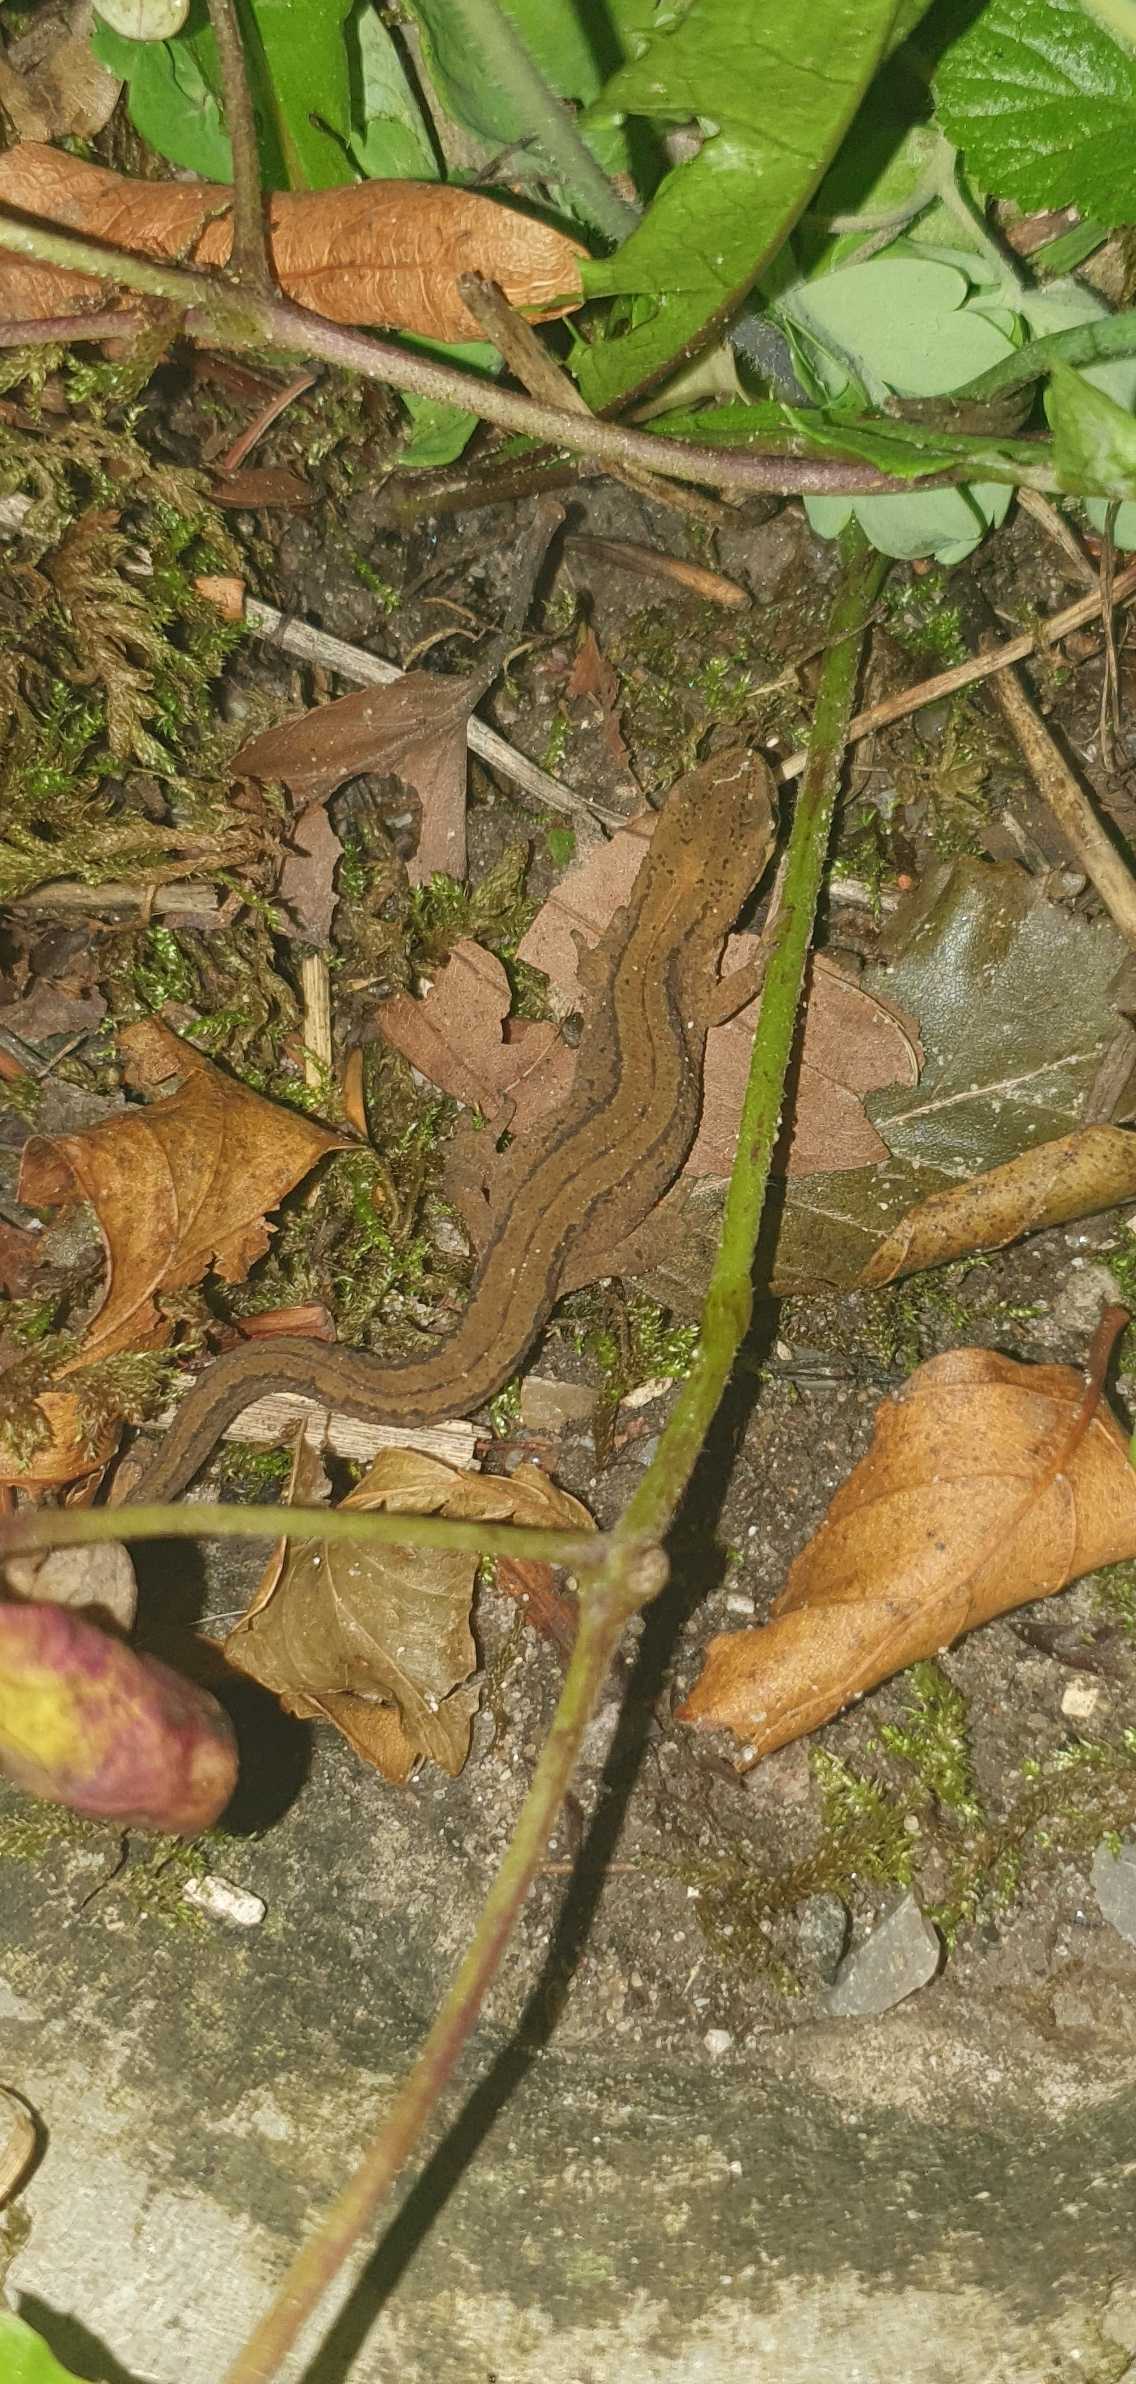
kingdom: Animalia
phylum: Chordata
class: Amphibia
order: Caudata
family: Salamandridae
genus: Lissotriton
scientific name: Lissotriton vulgaris
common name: Lille vandsalamander
